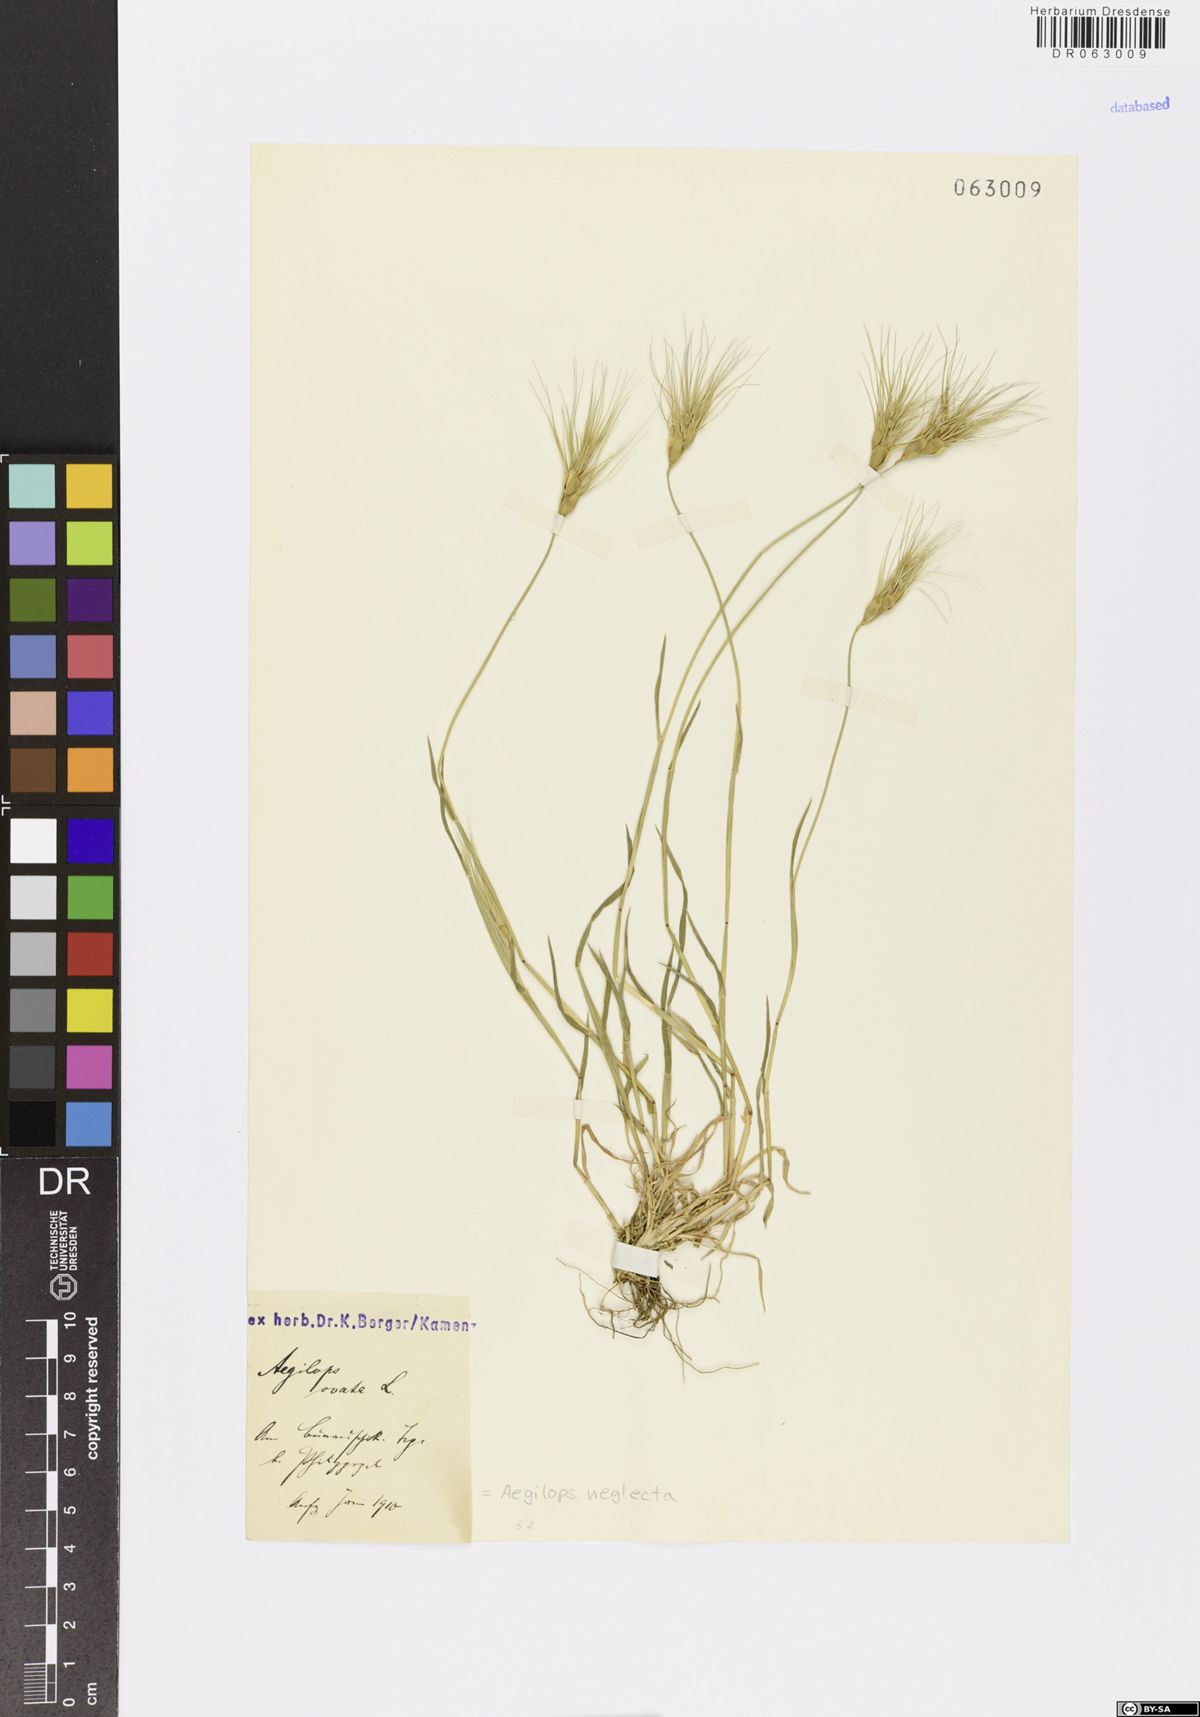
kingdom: Plantae
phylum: Tracheophyta
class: Liliopsida
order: Poales
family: Poaceae
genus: Aegilops
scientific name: Aegilops neglecta
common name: Three-awn goat grass
